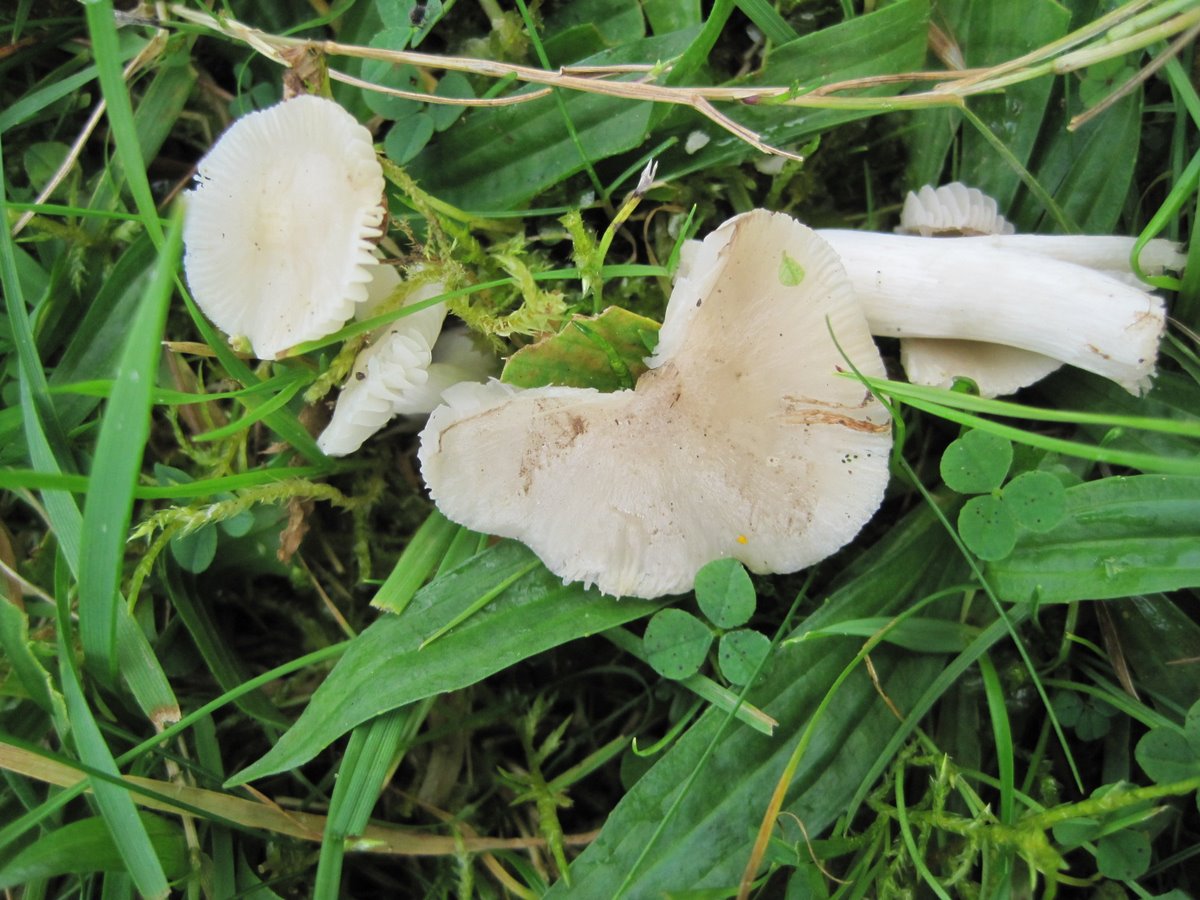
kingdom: Fungi
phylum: Basidiomycota
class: Agaricomycetes
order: Agaricales
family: Hygrophoraceae
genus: Cuphophyllus
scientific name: Cuphophyllus fornicatus
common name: gråbrun vokshat
